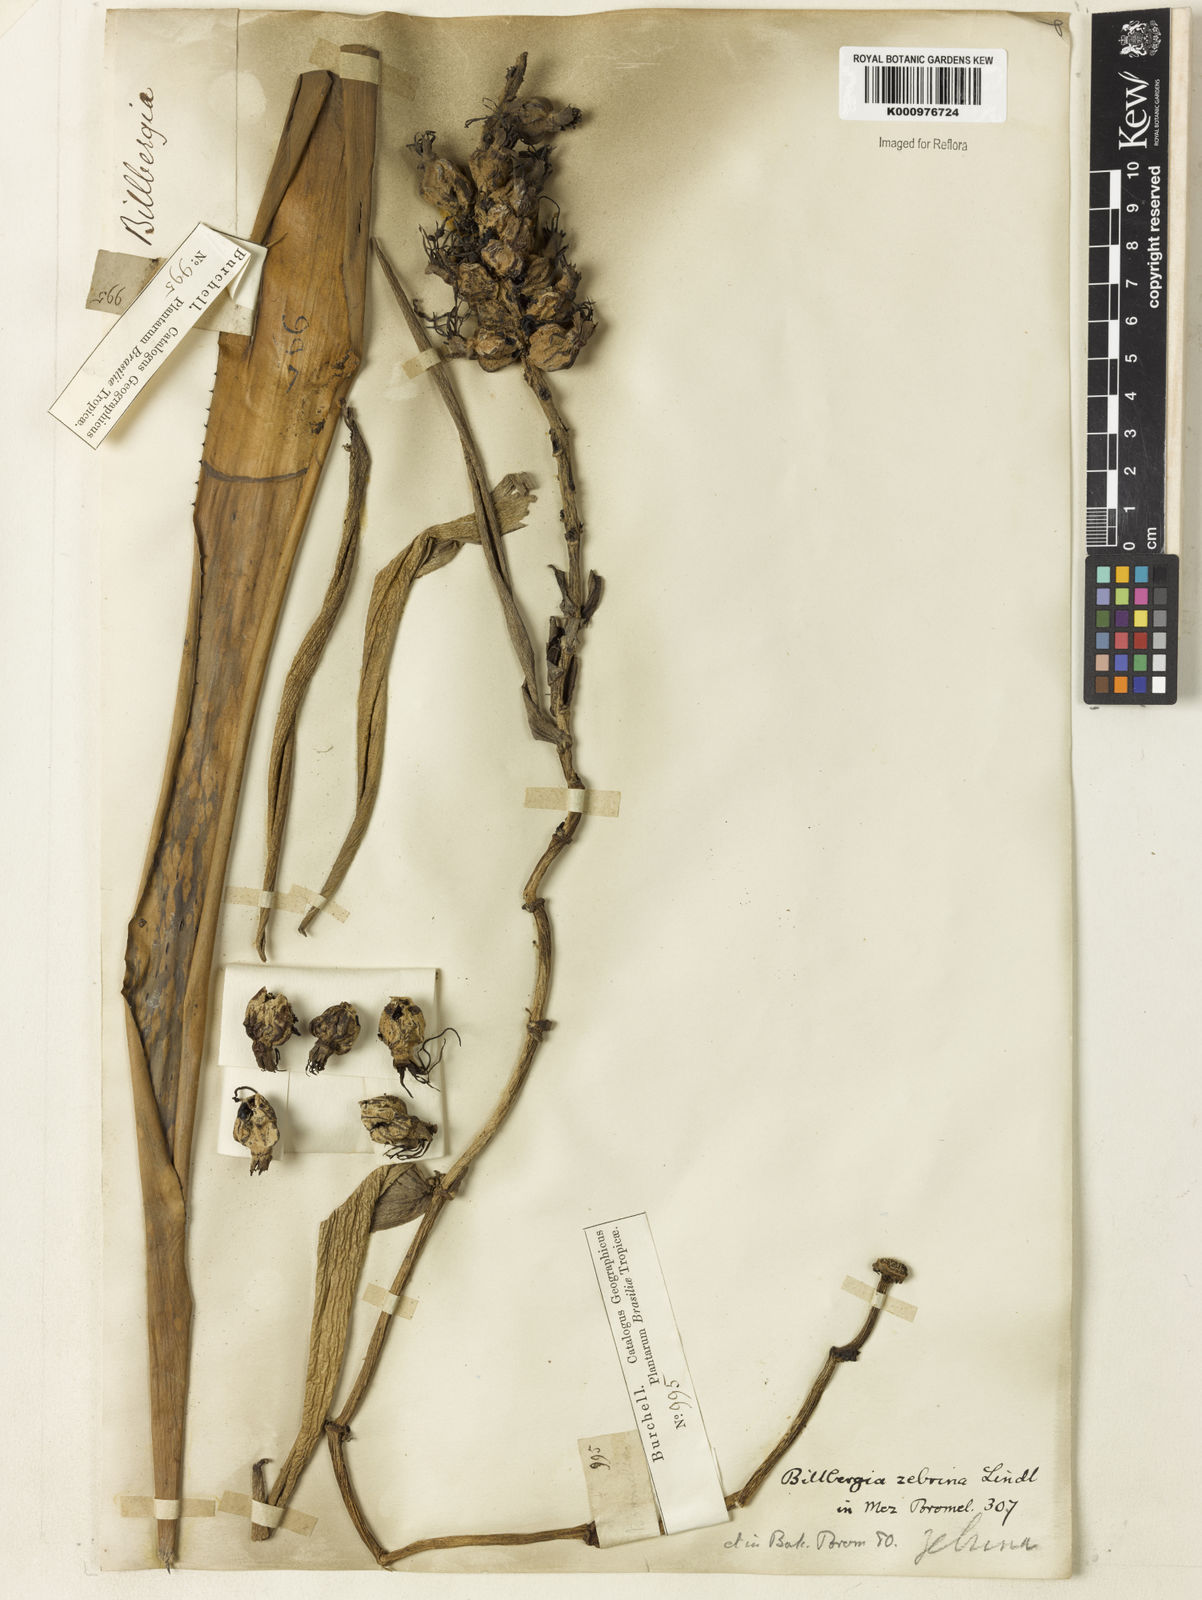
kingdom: Plantae
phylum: Tracheophyta
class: Liliopsida
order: Poales
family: Bromeliaceae
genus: Billbergia
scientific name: Billbergia zebrina
